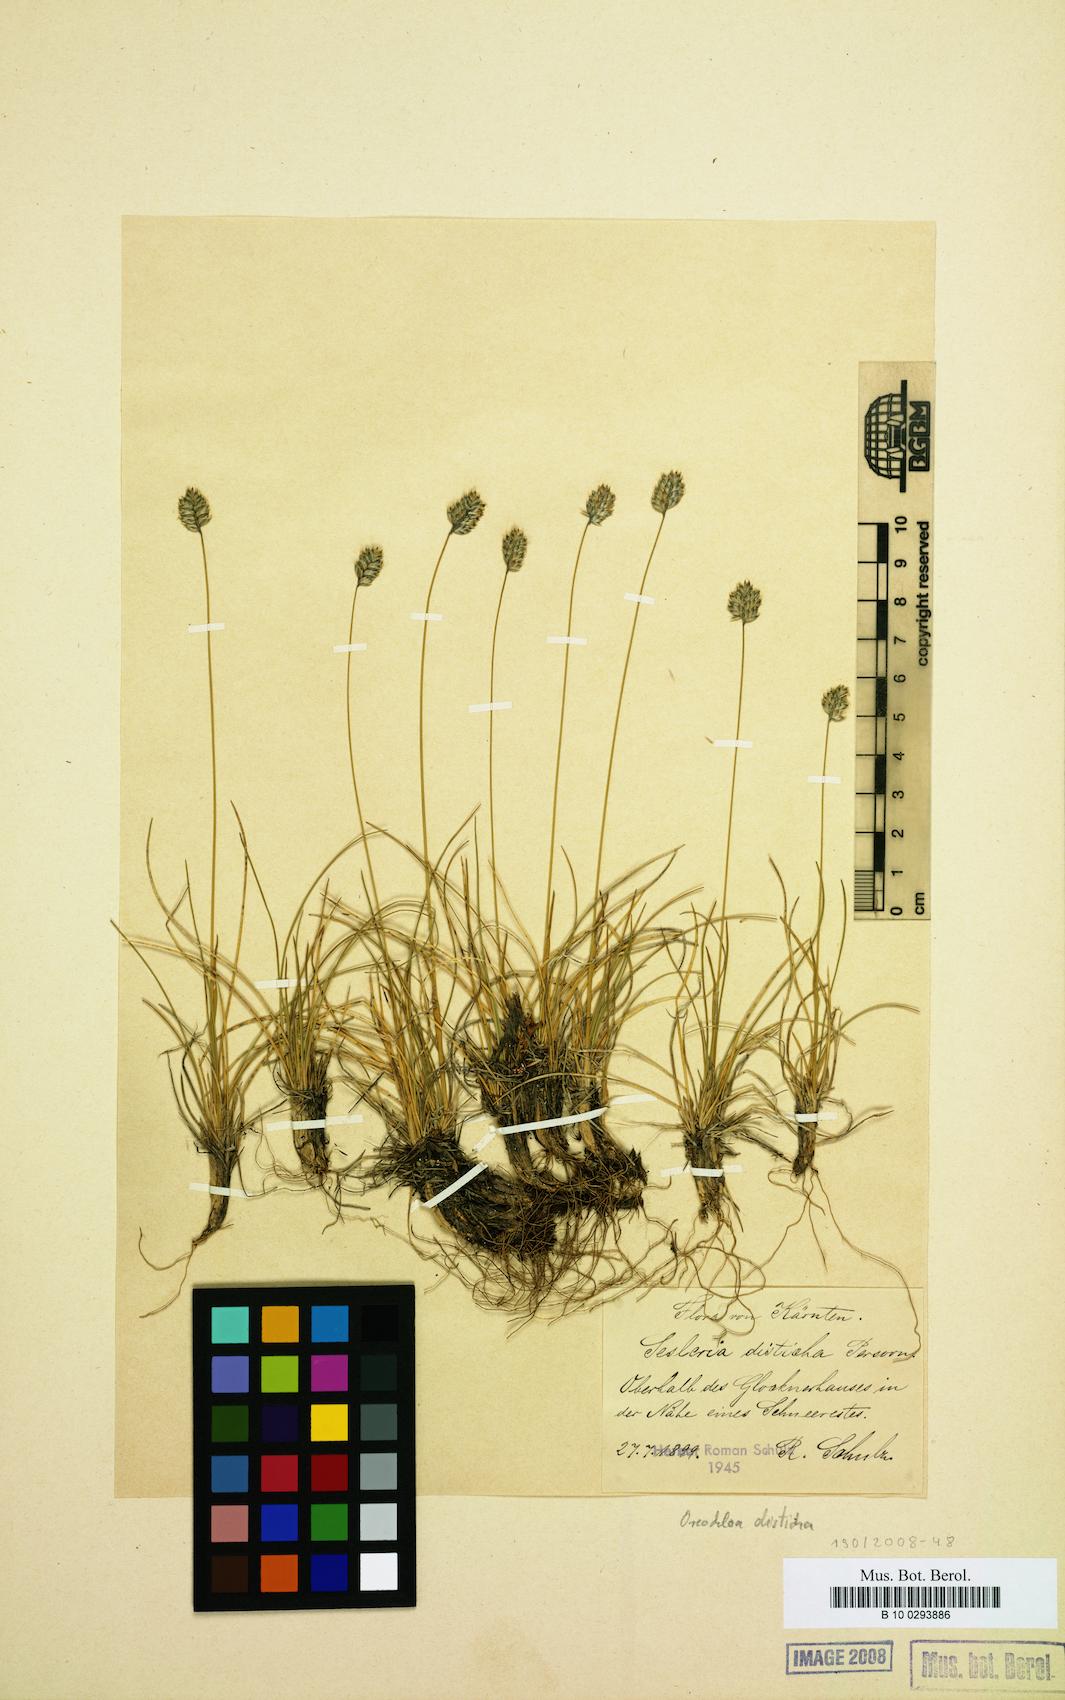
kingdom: Plantae
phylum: Tracheophyta
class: Liliopsida
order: Poales
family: Poaceae
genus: Oreochloa
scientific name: Oreochloa disticha
